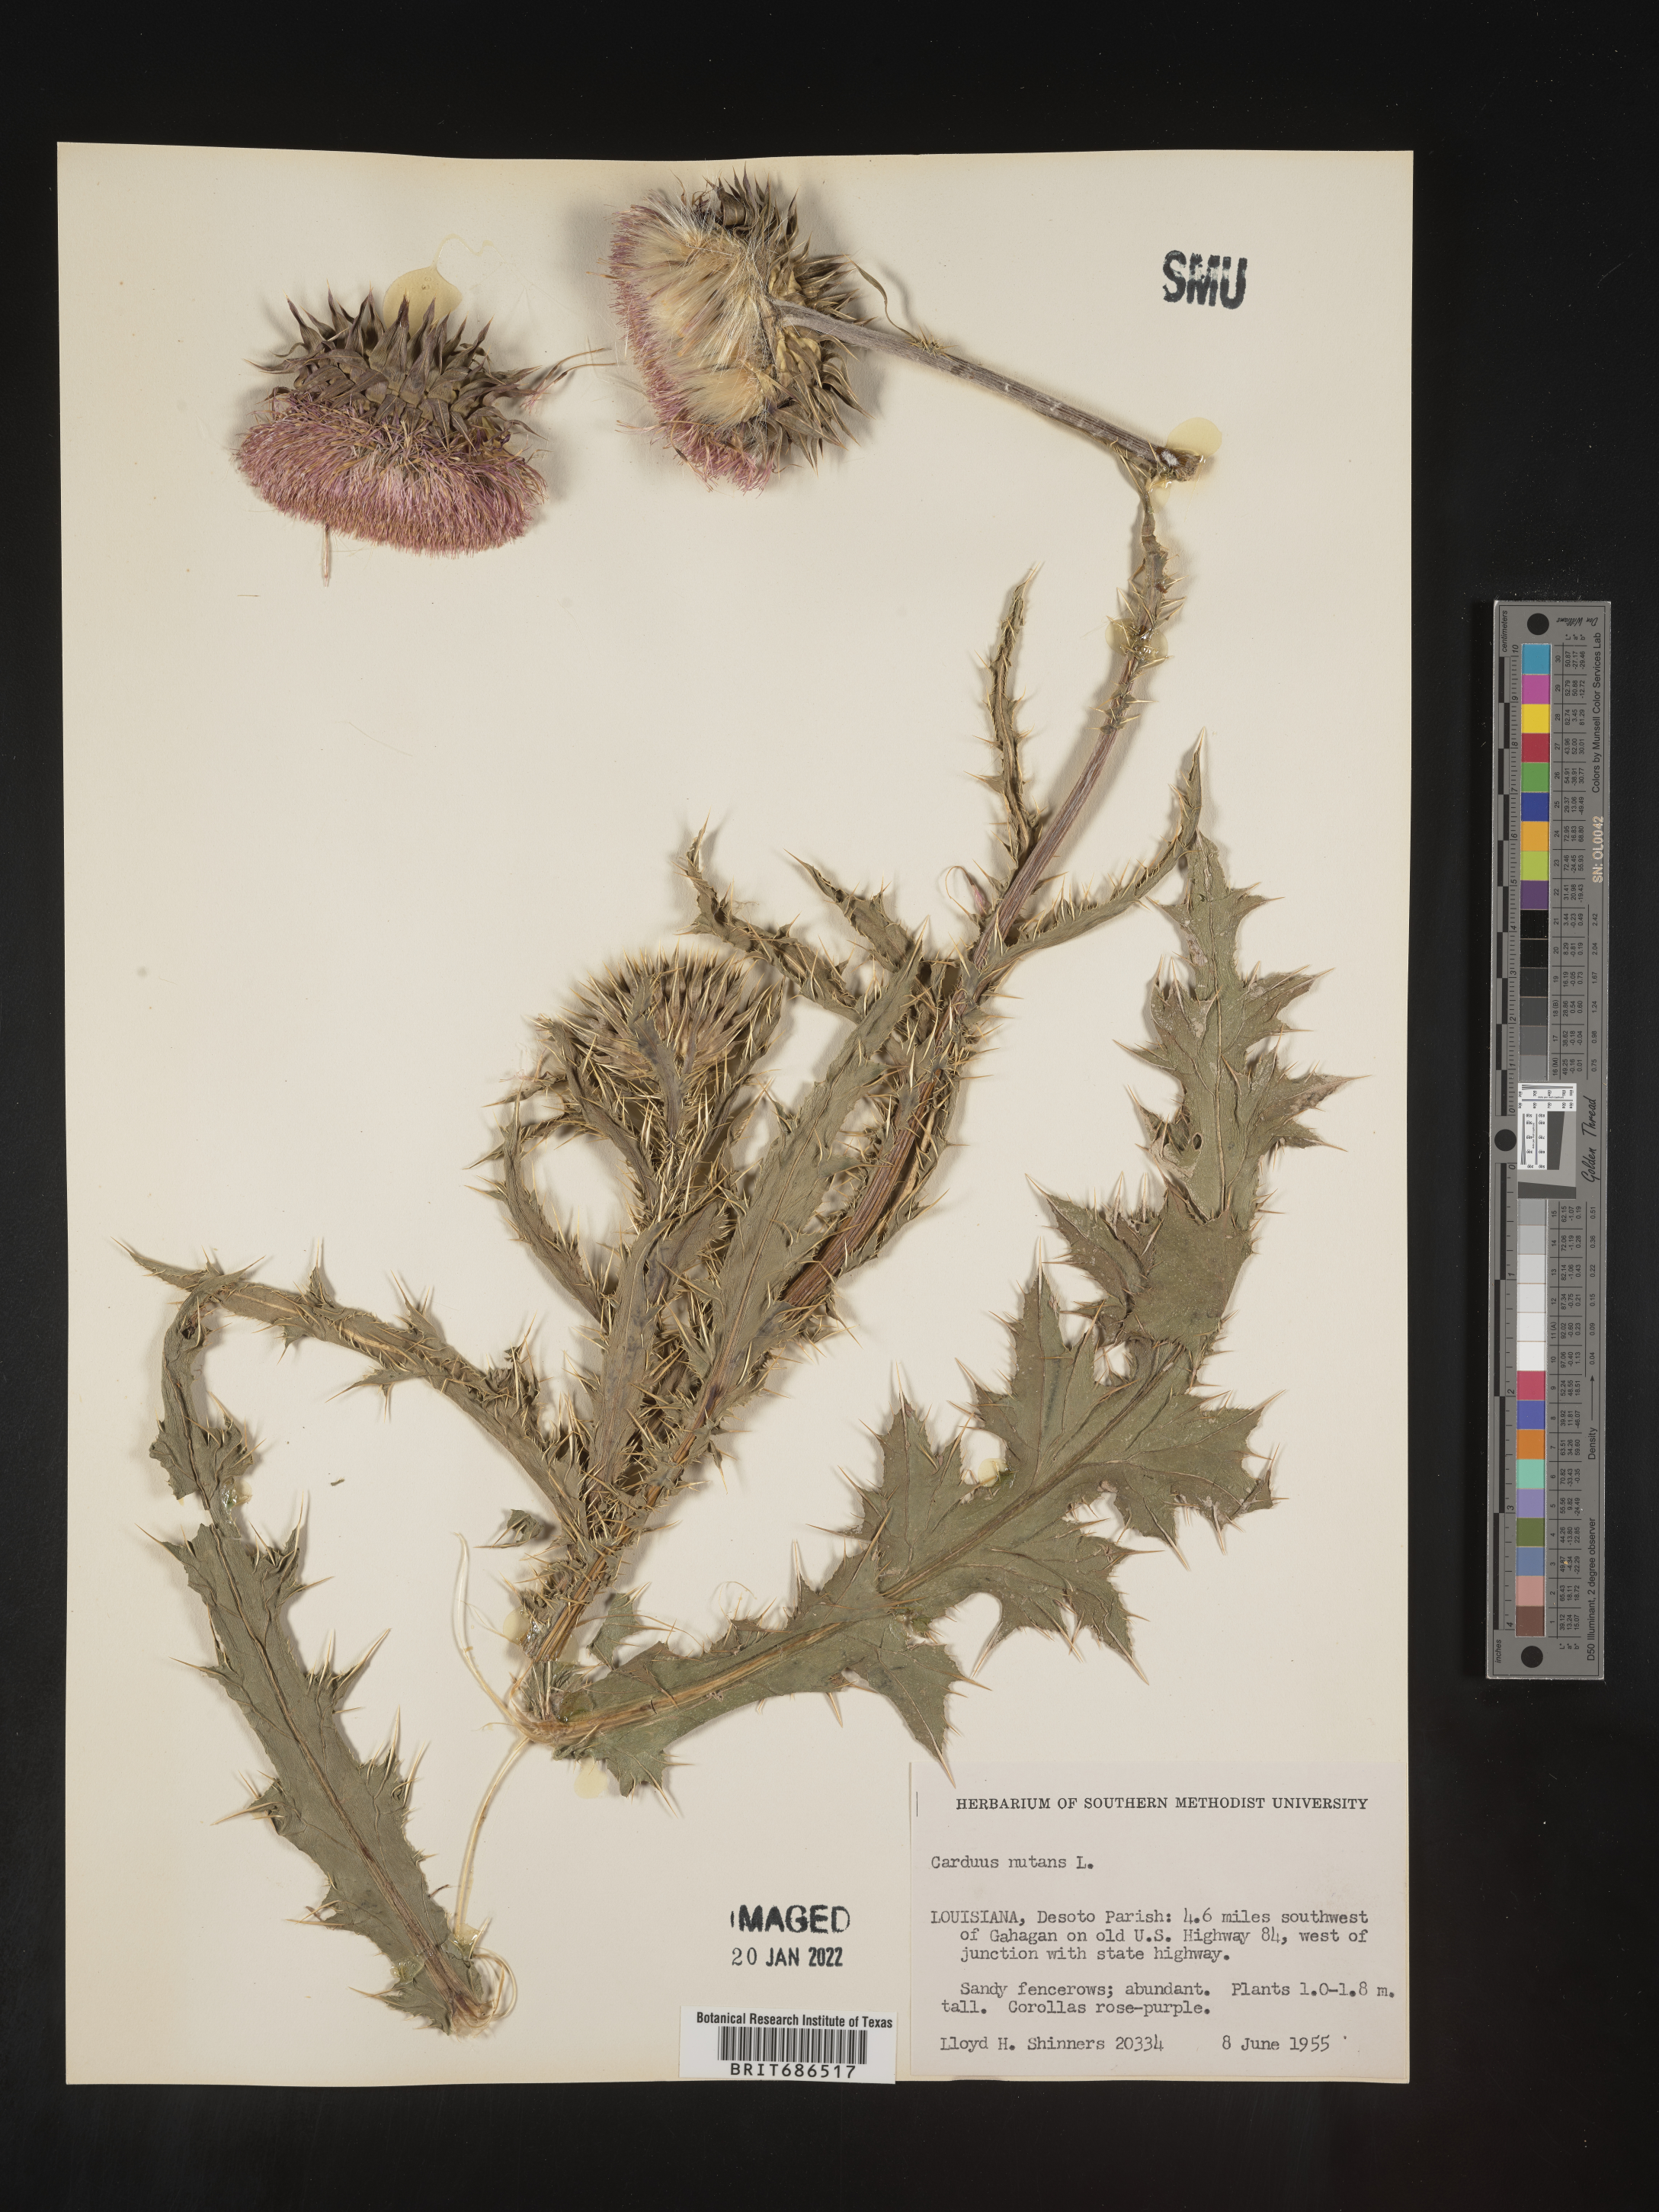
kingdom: Plantae
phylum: Tracheophyta
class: Magnoliopsida
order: Asterales
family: Asteraceae
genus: Carduus
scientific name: Carduus nutans
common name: Musk thistle
